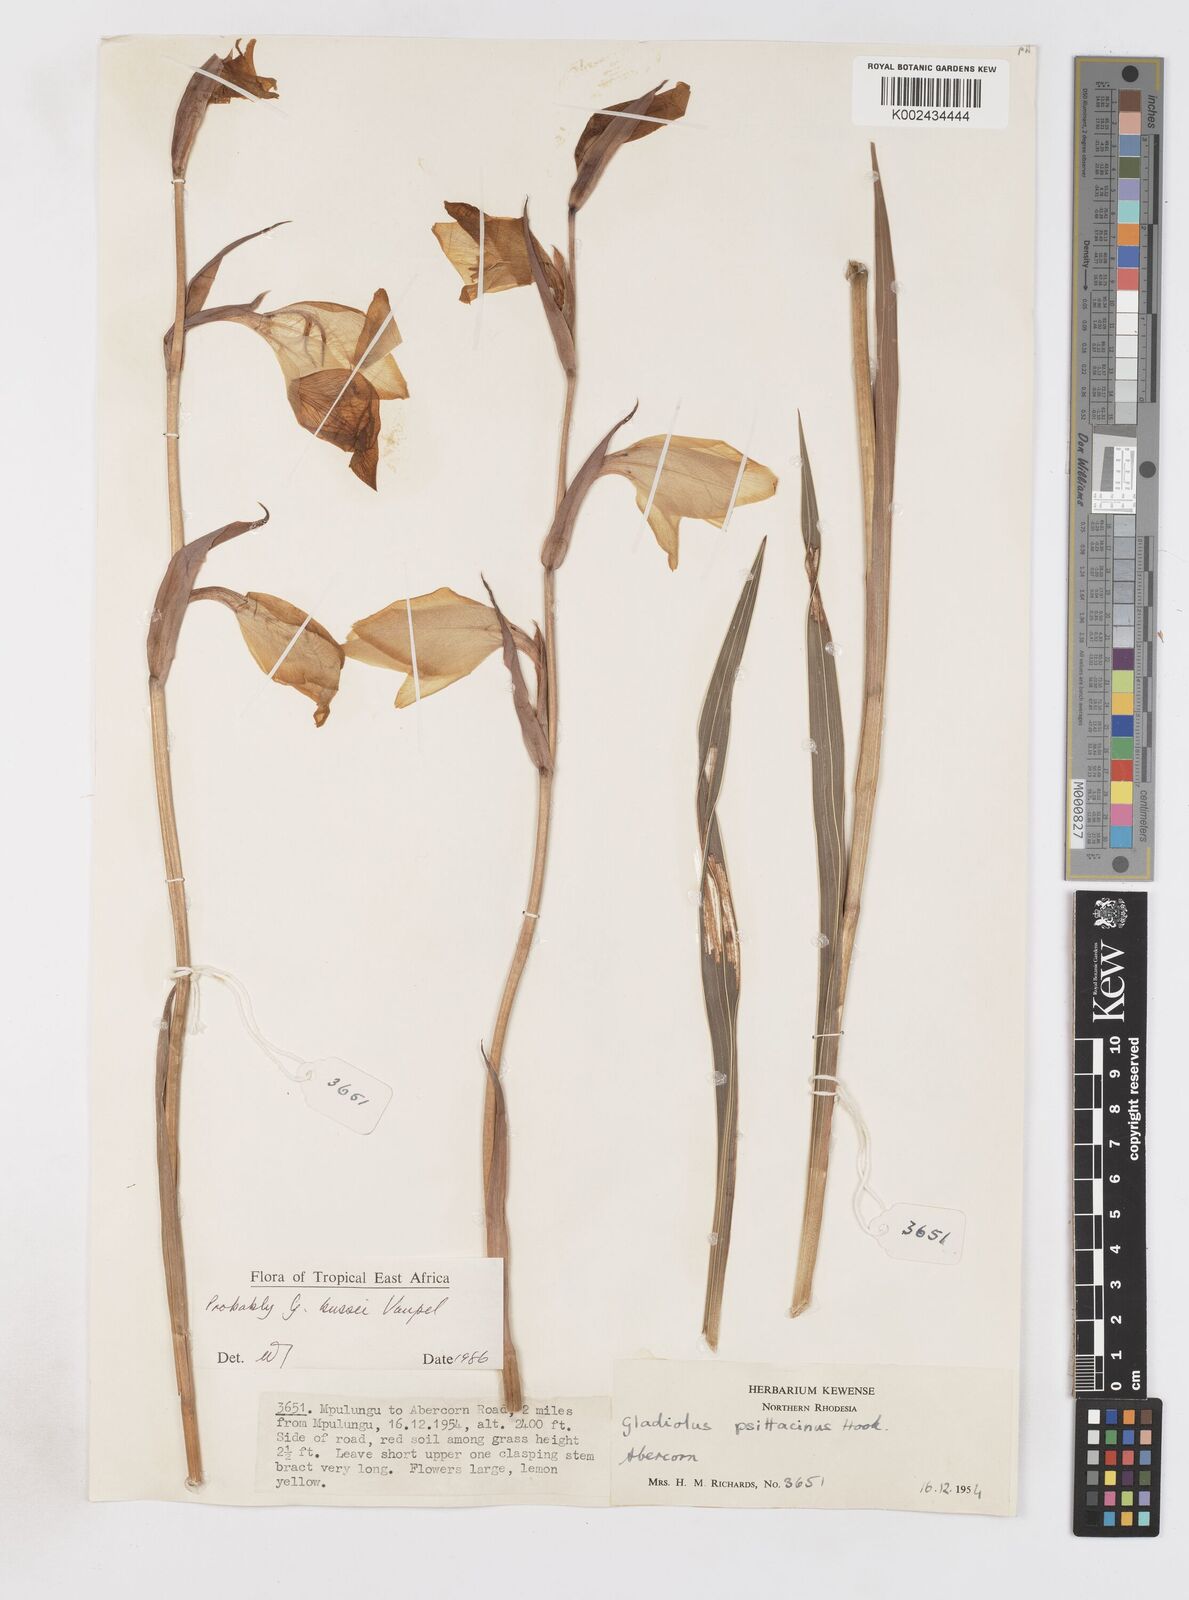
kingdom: Plantae
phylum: Tracheophyta
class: Liliopsida
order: Asparagales
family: Iridaceae
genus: Gladiolus
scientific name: Gladiolus dalenii
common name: Cornflag
